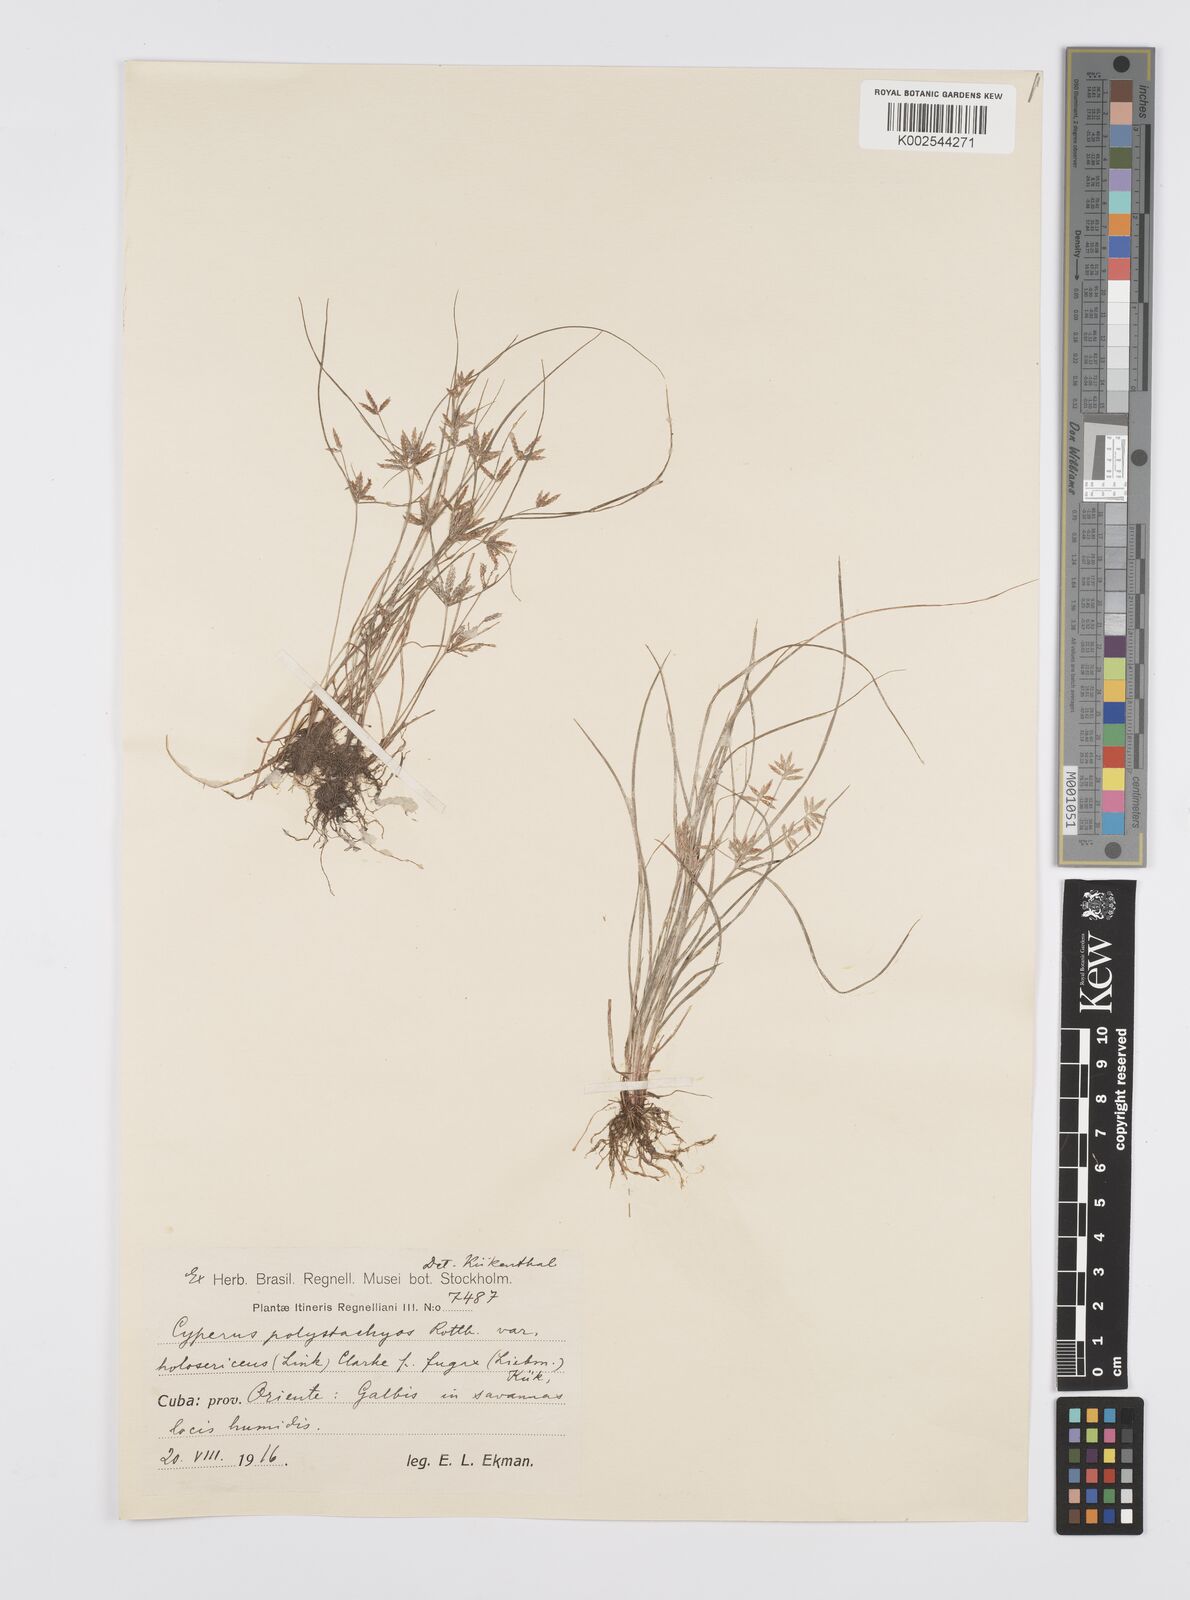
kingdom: Plantae
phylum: Tracheophyta
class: Liliopsida
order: Poales
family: Cyperaceae
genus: Cyperus
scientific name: Cyperus polystachyos
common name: Bunchy flat sedge
